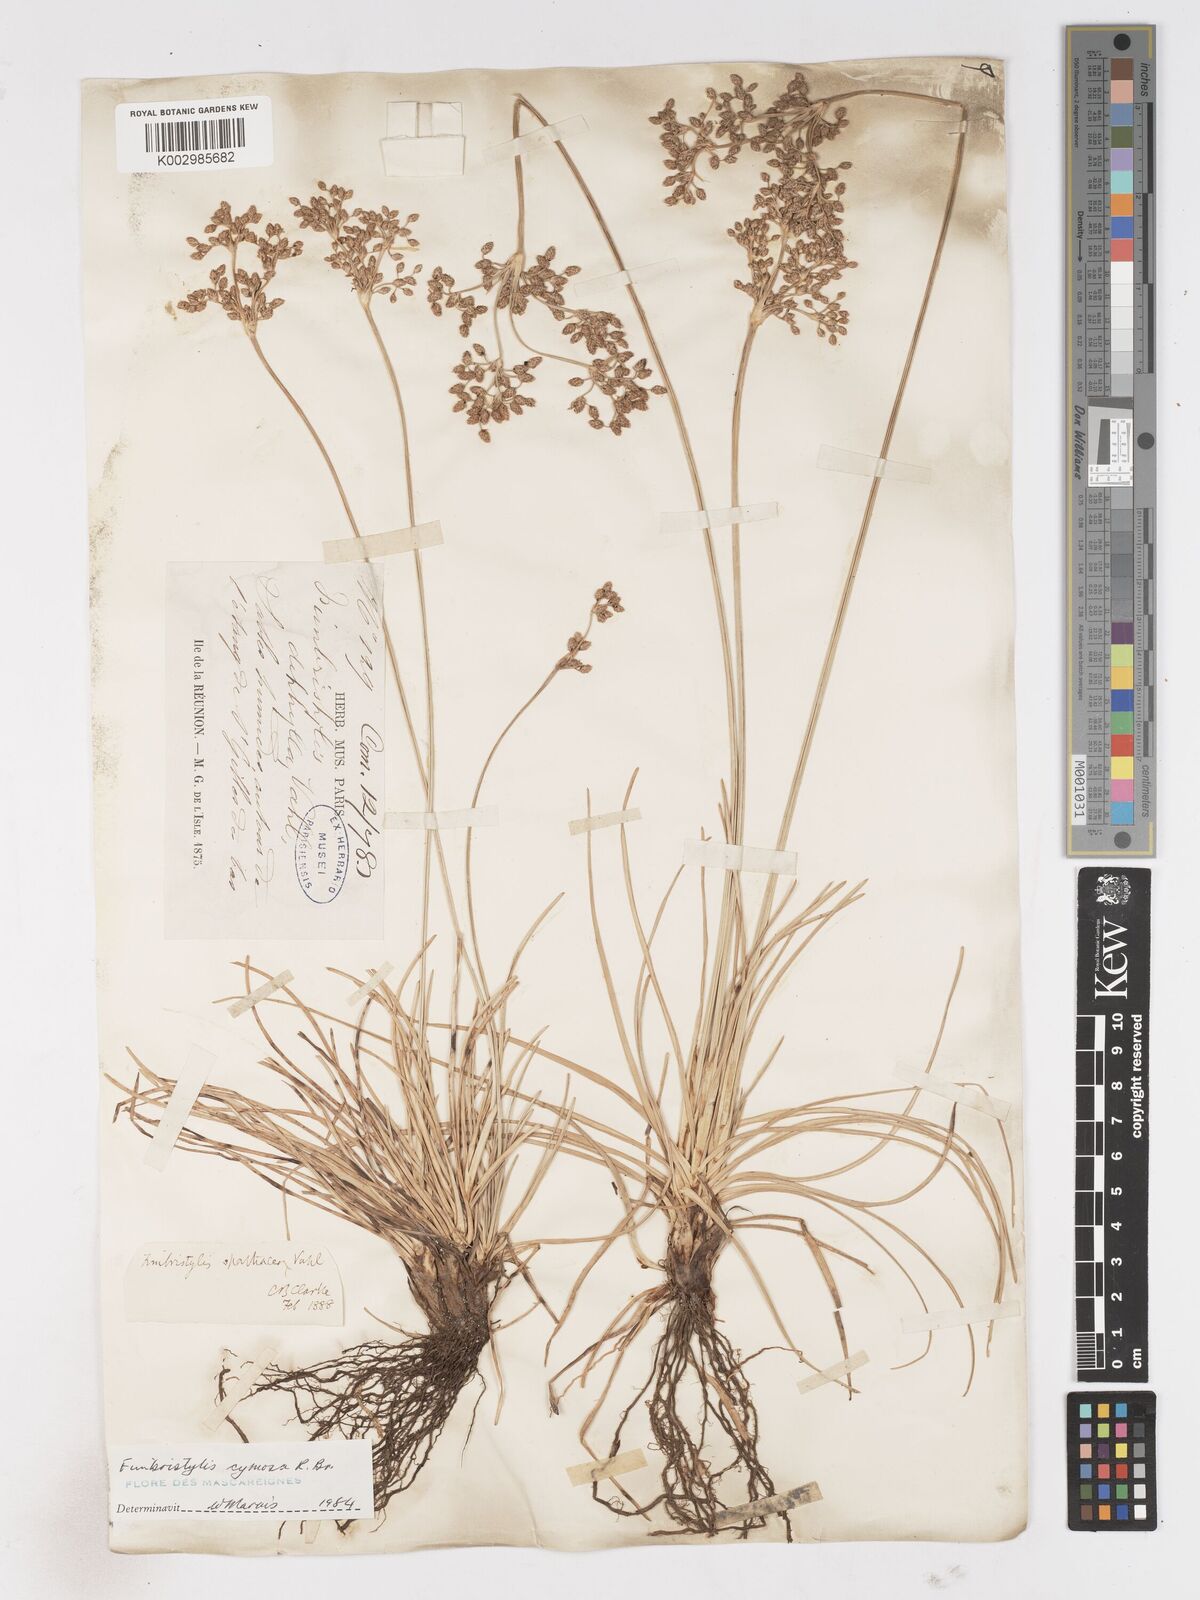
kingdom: Plantae
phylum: Tracheophyta
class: Liliopsida
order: Poales
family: Cyperaceae
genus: Fimbristylis
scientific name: Fimbristylis cymosa
